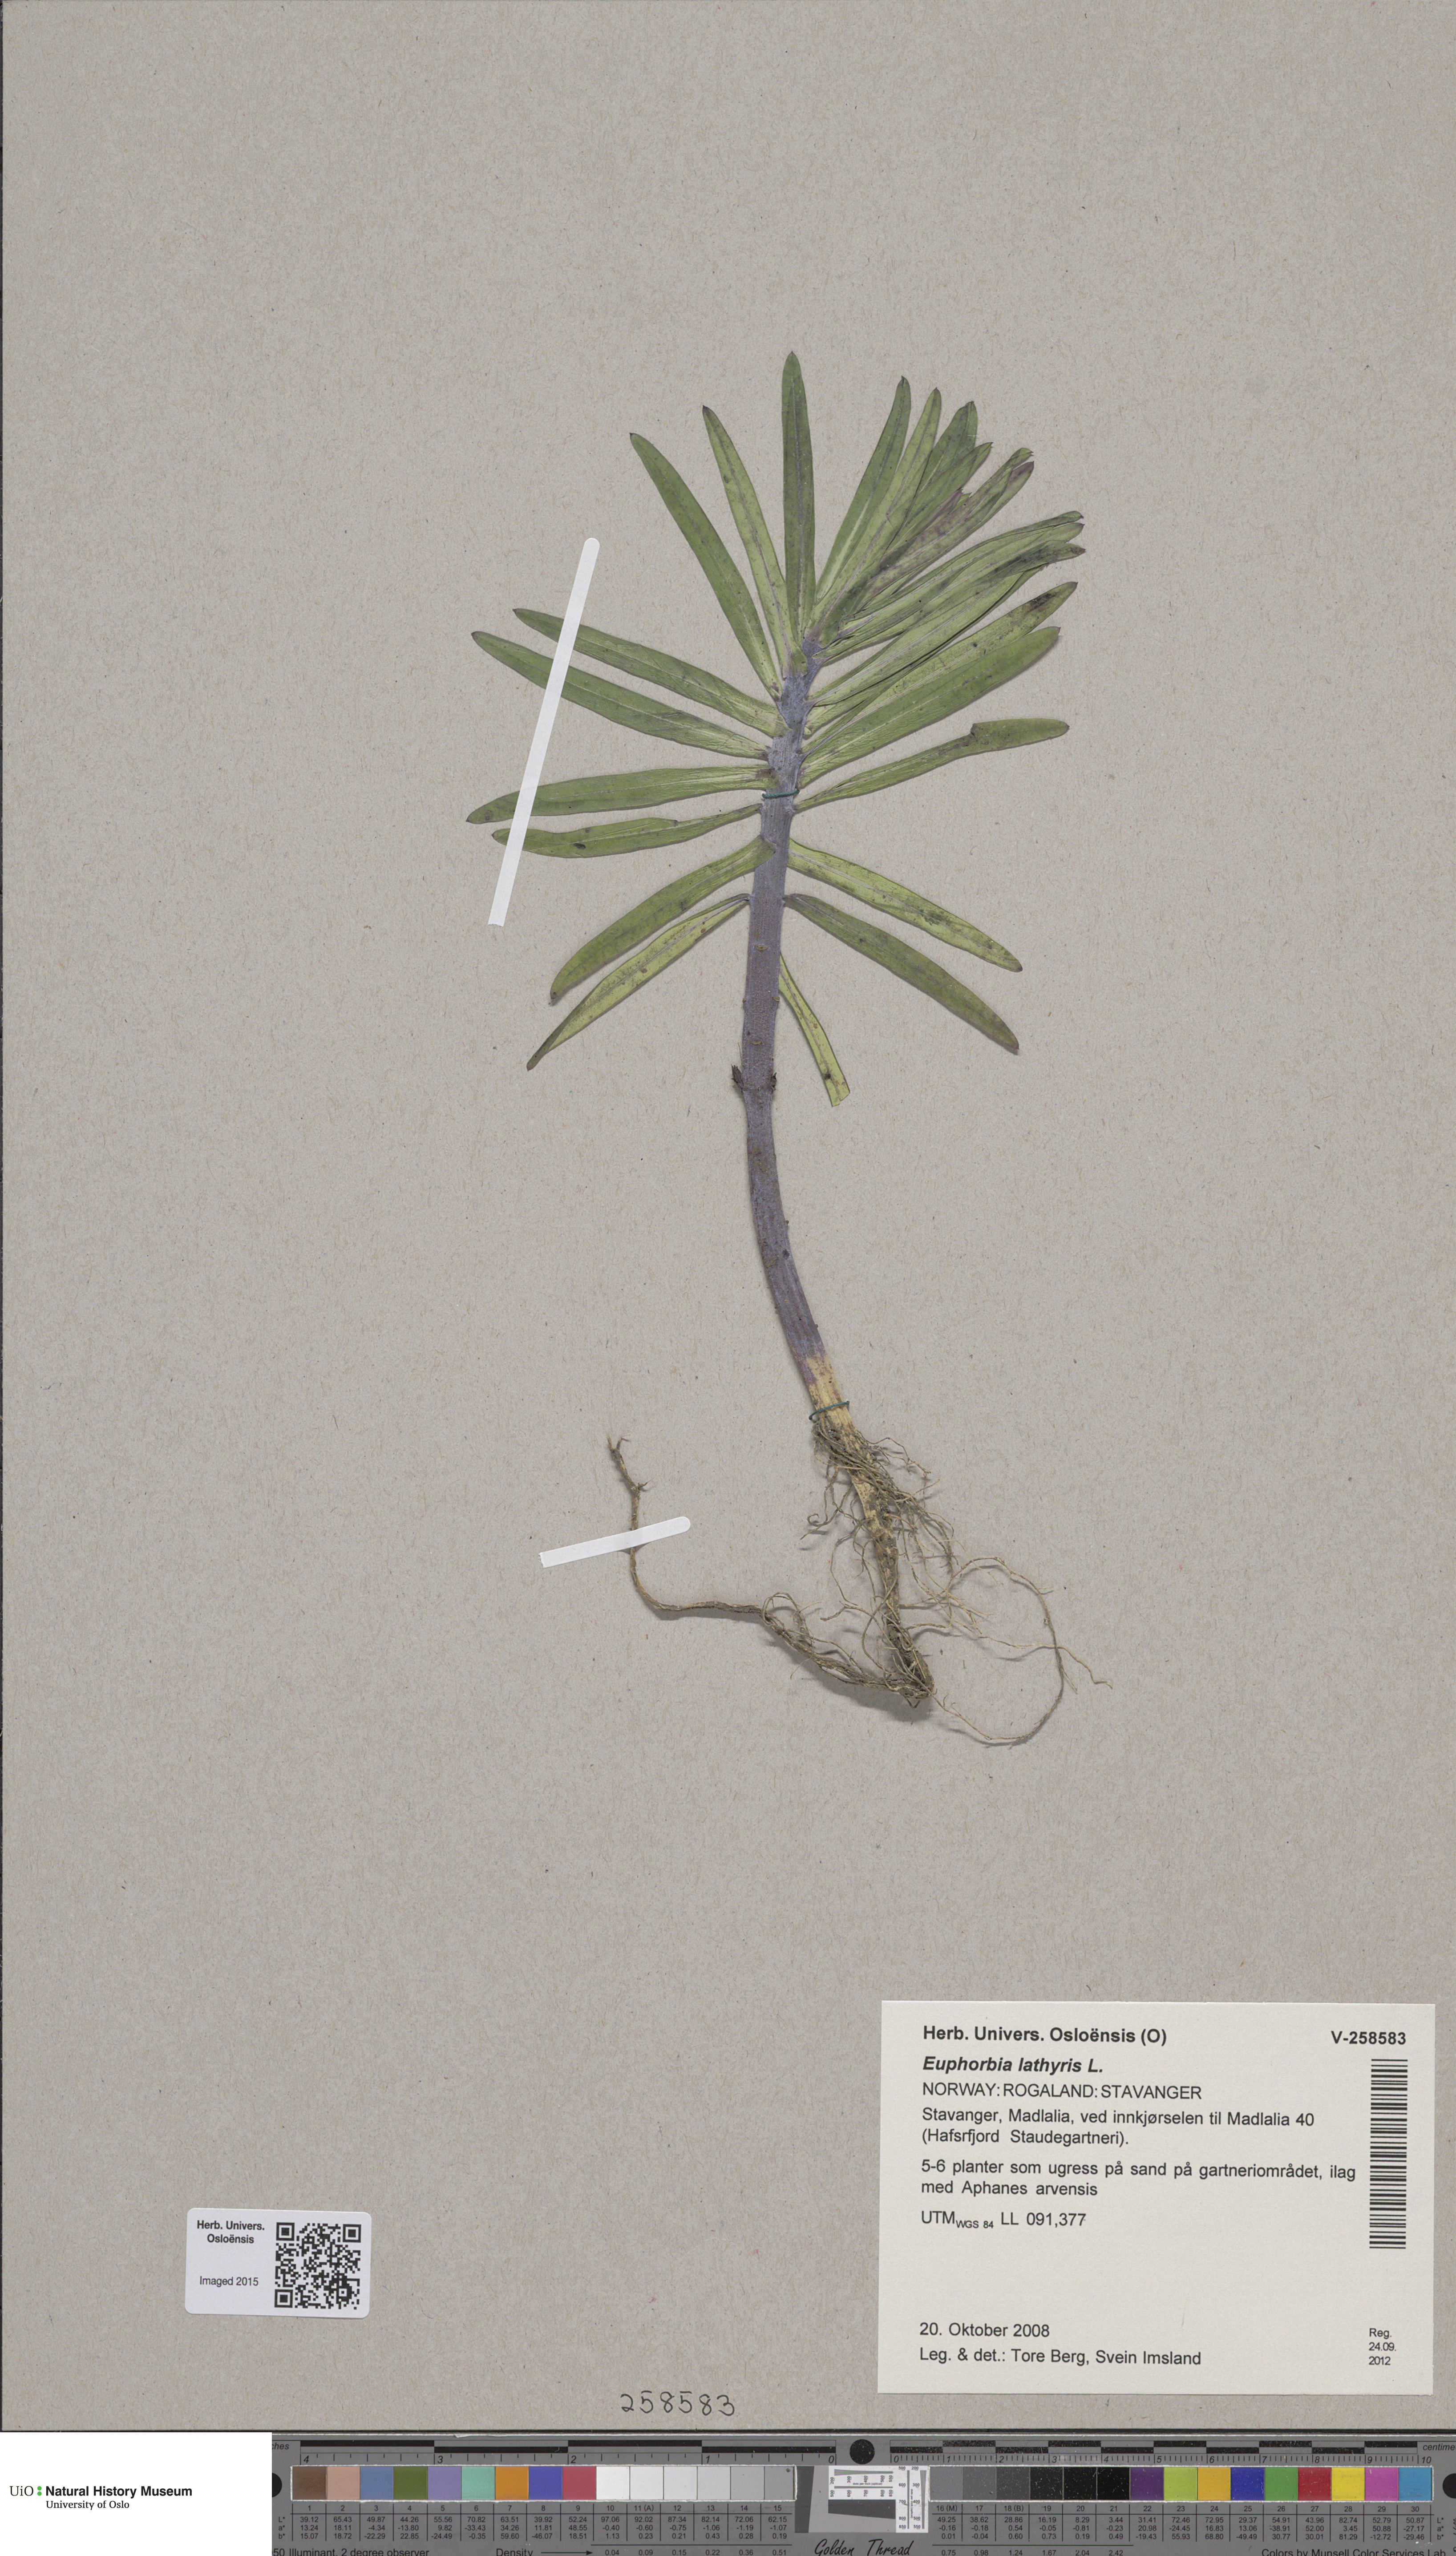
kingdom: Plantae
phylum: Tracheophyta
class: Magnoliopsida
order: Malpighiales
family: Euphorbiaceae
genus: Euphorbia
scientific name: Euphorbia lathyris
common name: Caper spurge
